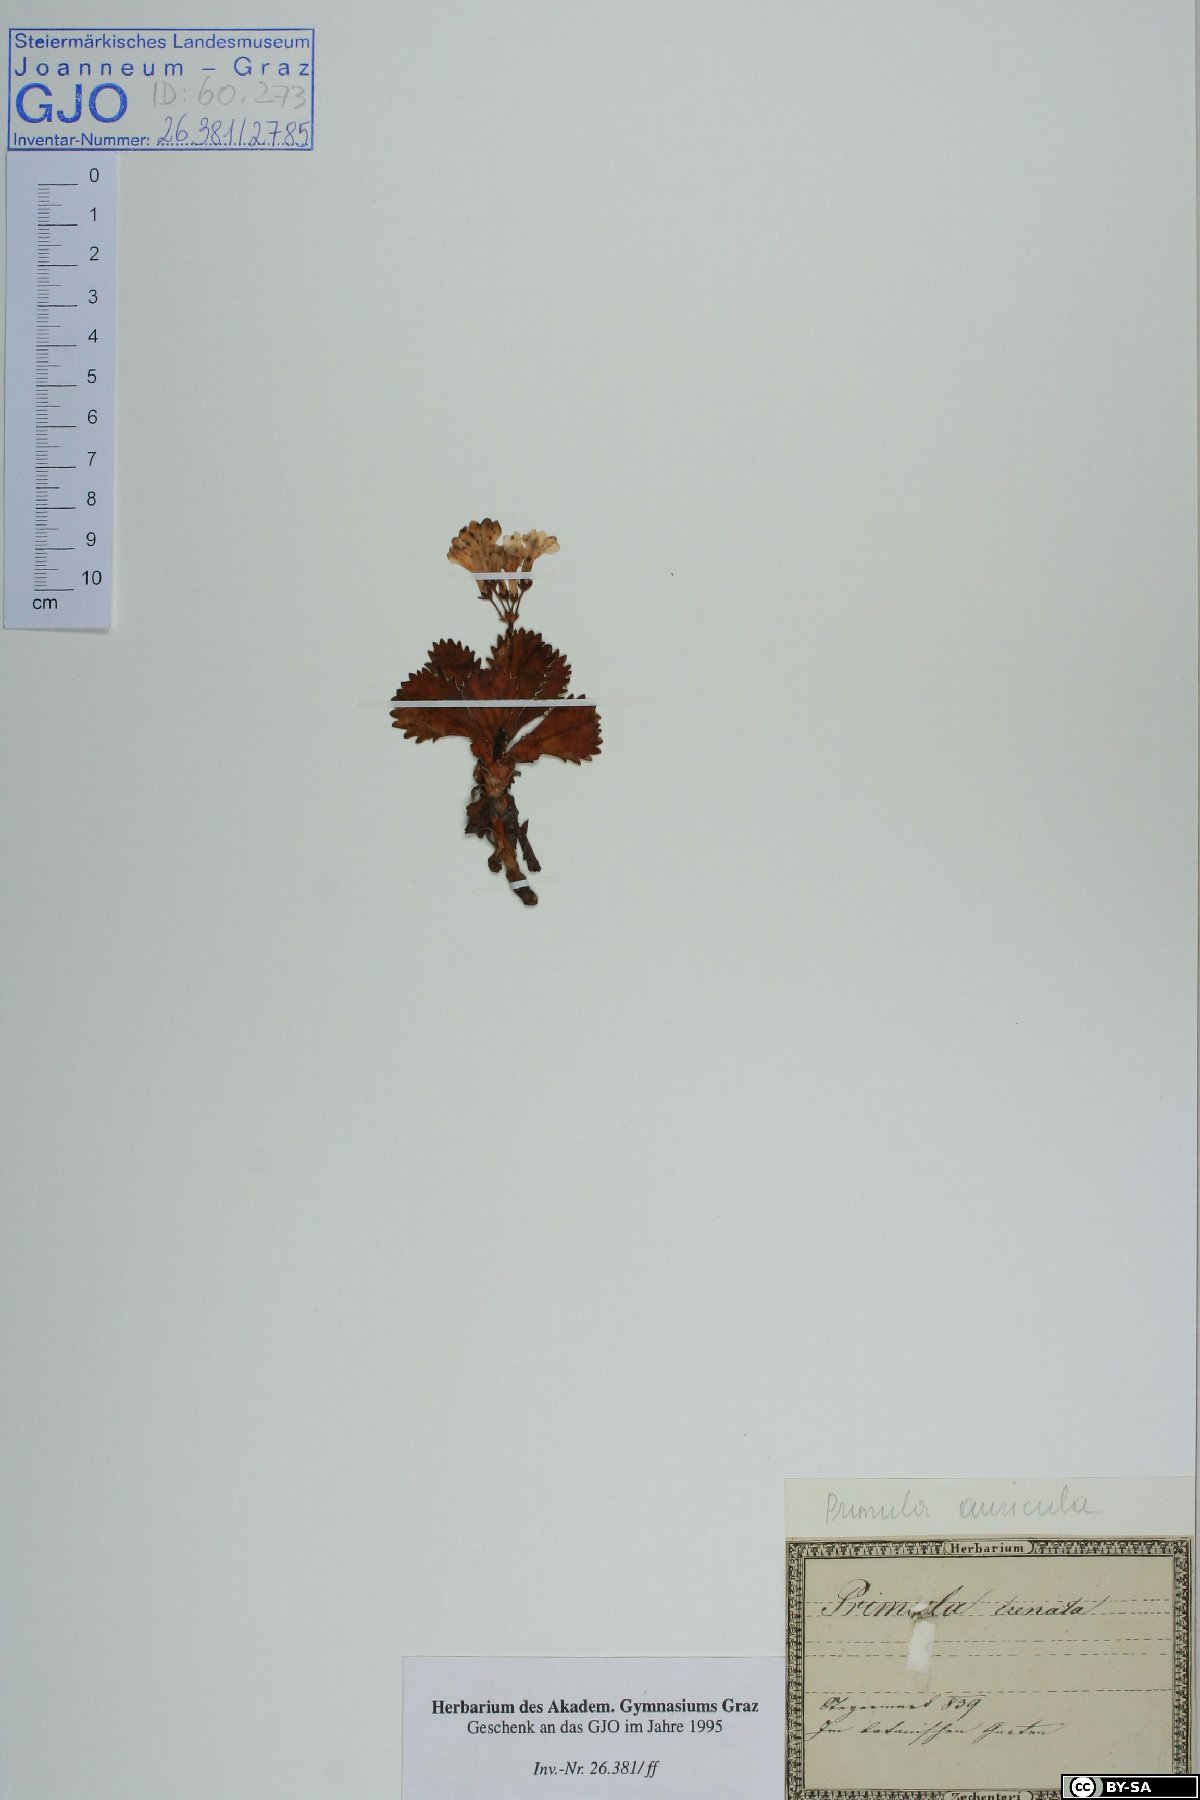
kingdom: Plantae
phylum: Tracheophyta
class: Magnoliopsida
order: Ericales
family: Primulaceae
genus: Primula
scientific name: Primula elatior
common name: Oxlip
